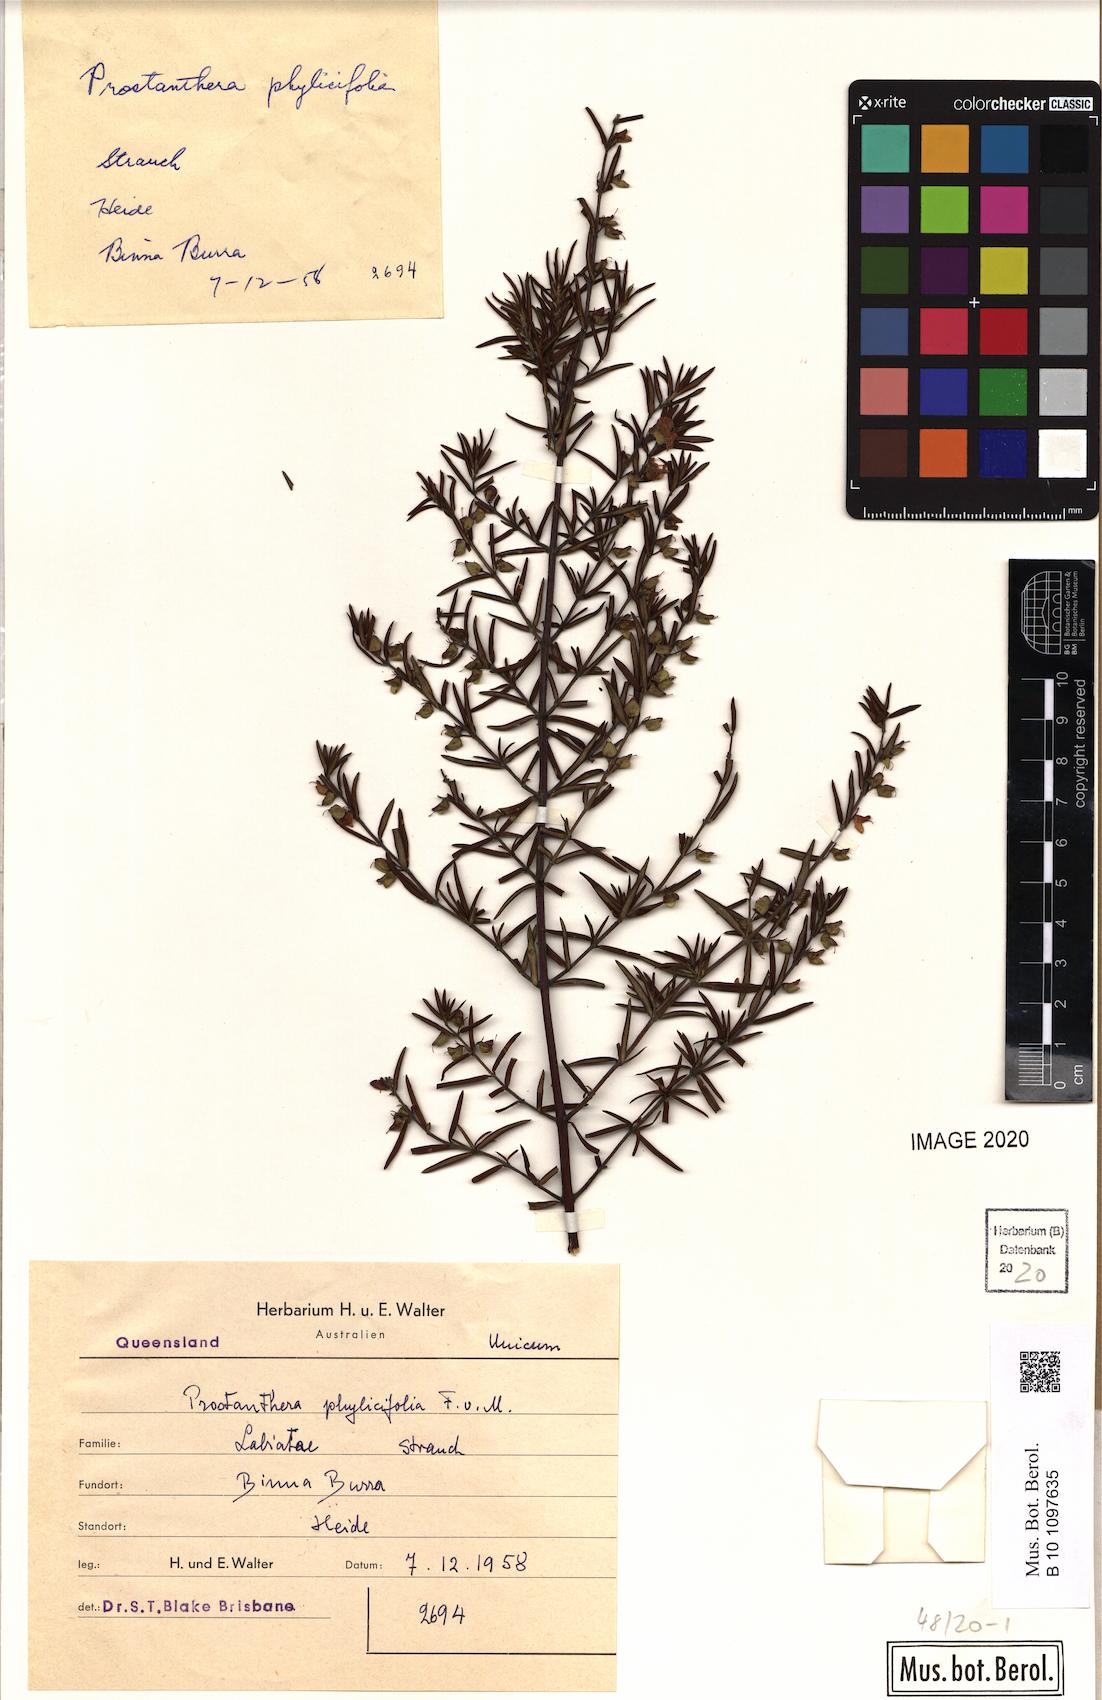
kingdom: Plantae
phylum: Tracheophyta
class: Magnoliopsida
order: Lamiales
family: Lamiaceae
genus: Prostanthera
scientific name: Prostanthera phylicifolia
